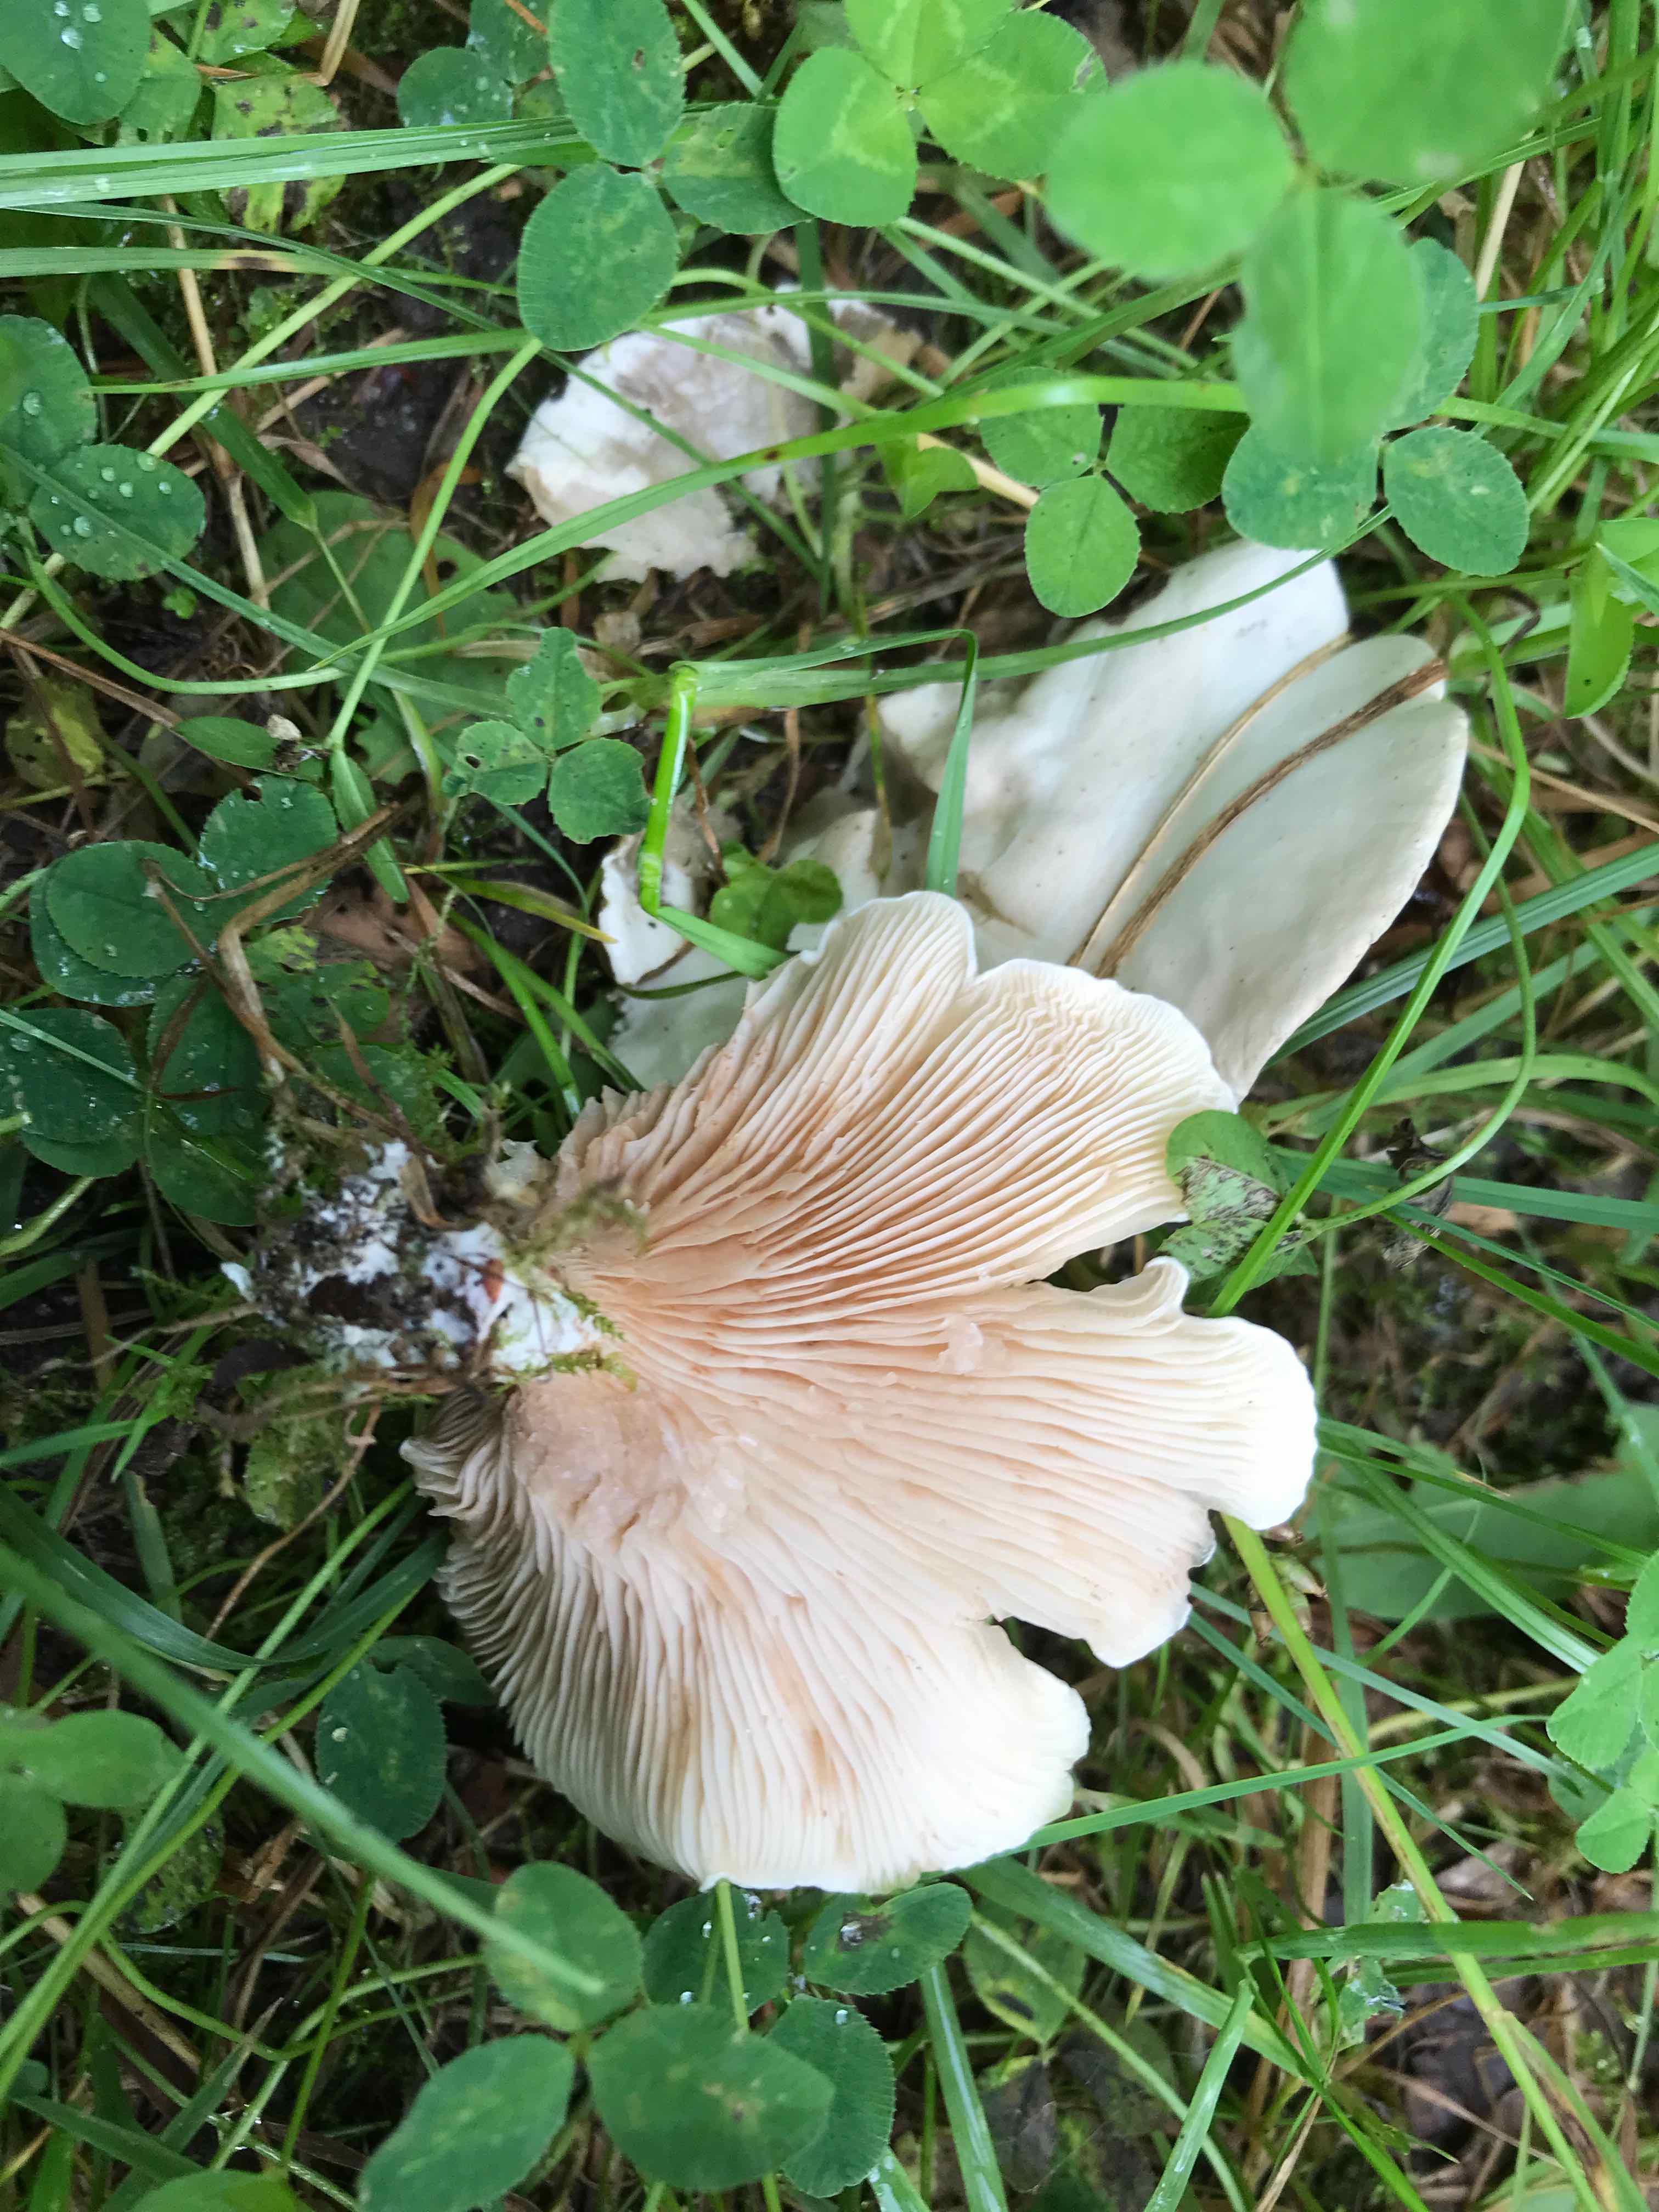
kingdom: Fungi
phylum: Basidiomycota
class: Agaricomycetes
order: Agaricales
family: Entolomataceae
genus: Clitopilus
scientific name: Clitopilus prunulus
